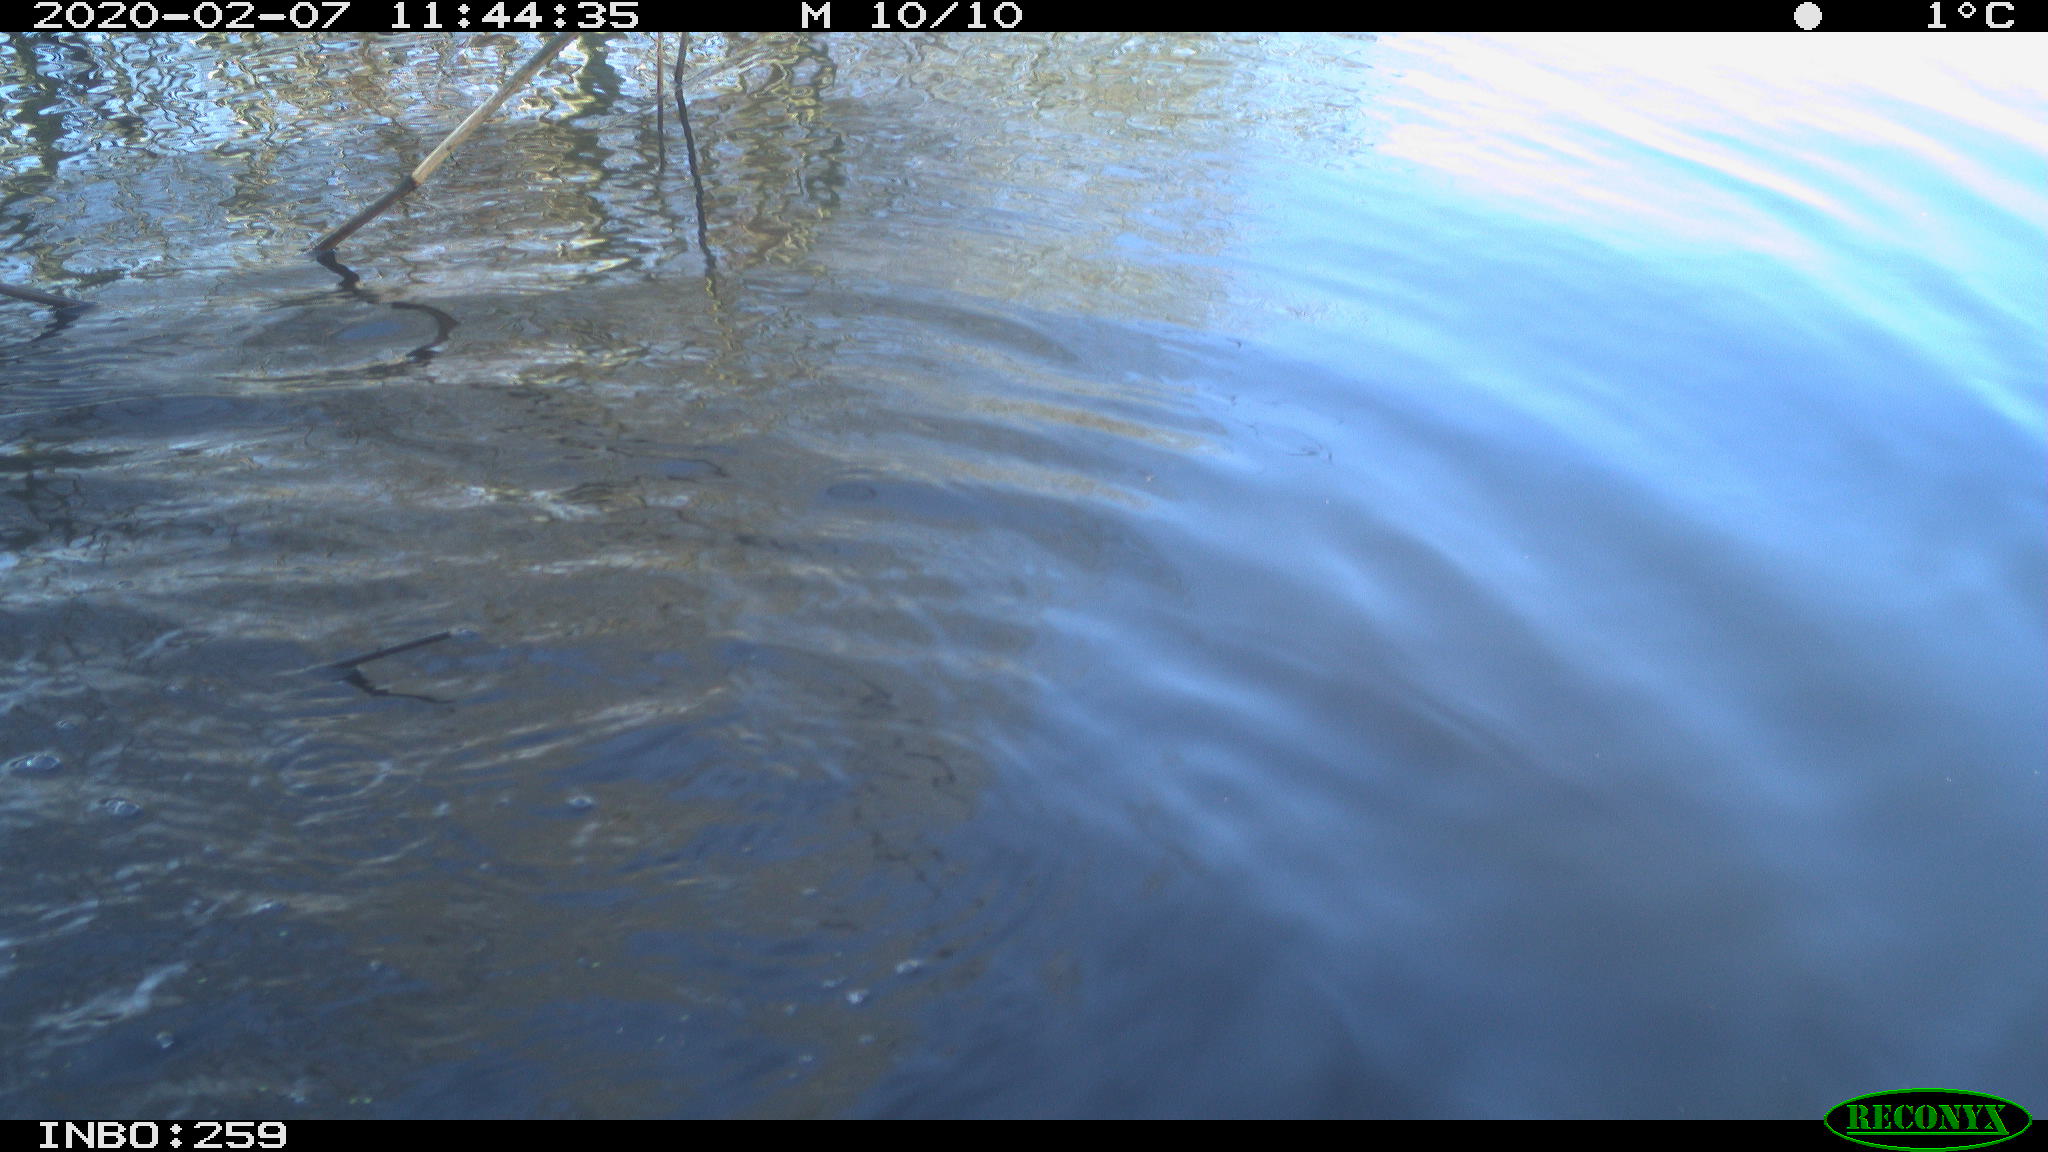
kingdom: Animalia
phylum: Chordata
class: Aves
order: Gruiformes
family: Rallidae
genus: Gallinula
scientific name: Gallinula chloropus
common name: Common moorhen
